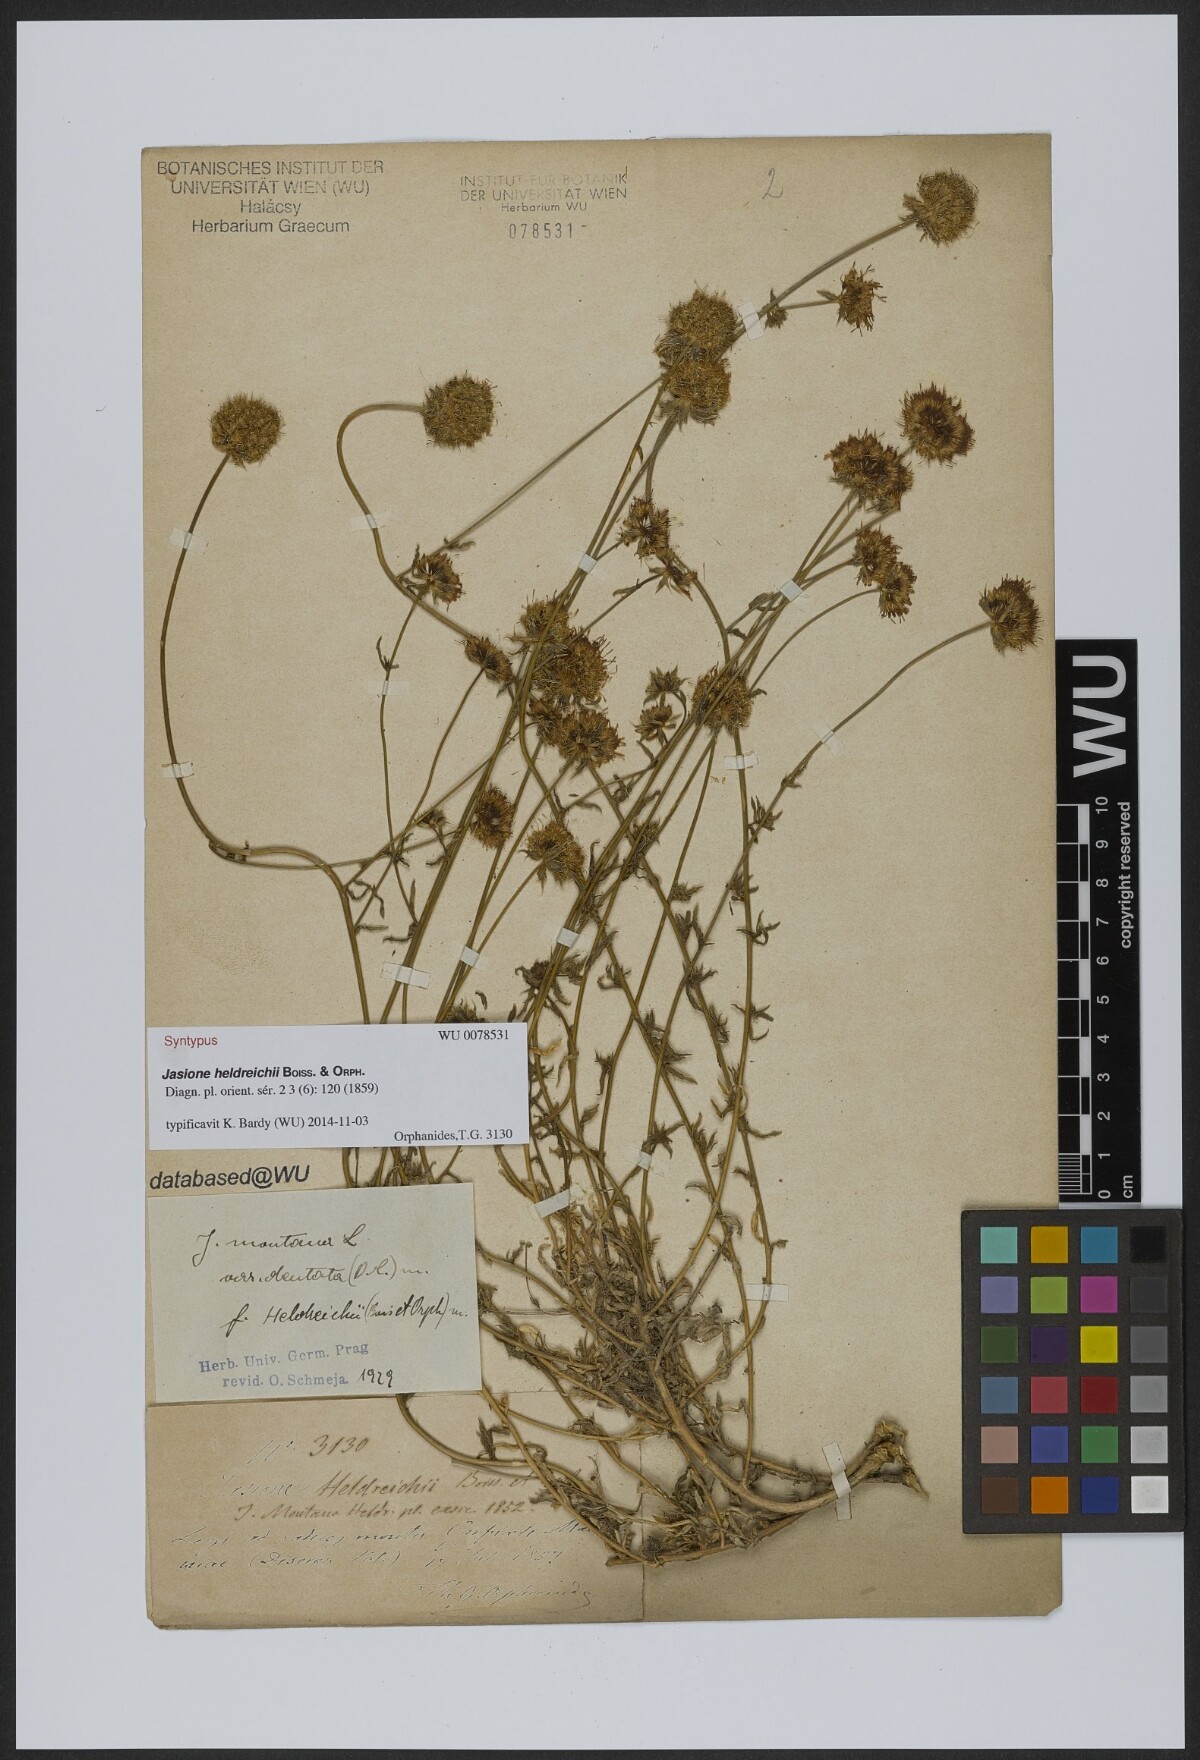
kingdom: Plantae
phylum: Tracheophyta
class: Magnoliopsida
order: Asterales
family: Campanulaceae
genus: Jasione
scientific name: Jasione heldreichii
